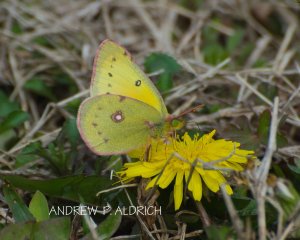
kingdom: Animalia
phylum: Arthropoda
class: Insecta
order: Lepidoptera
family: Pieridae
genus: Colias
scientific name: Colias eurytheme
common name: Orange Sulphur
